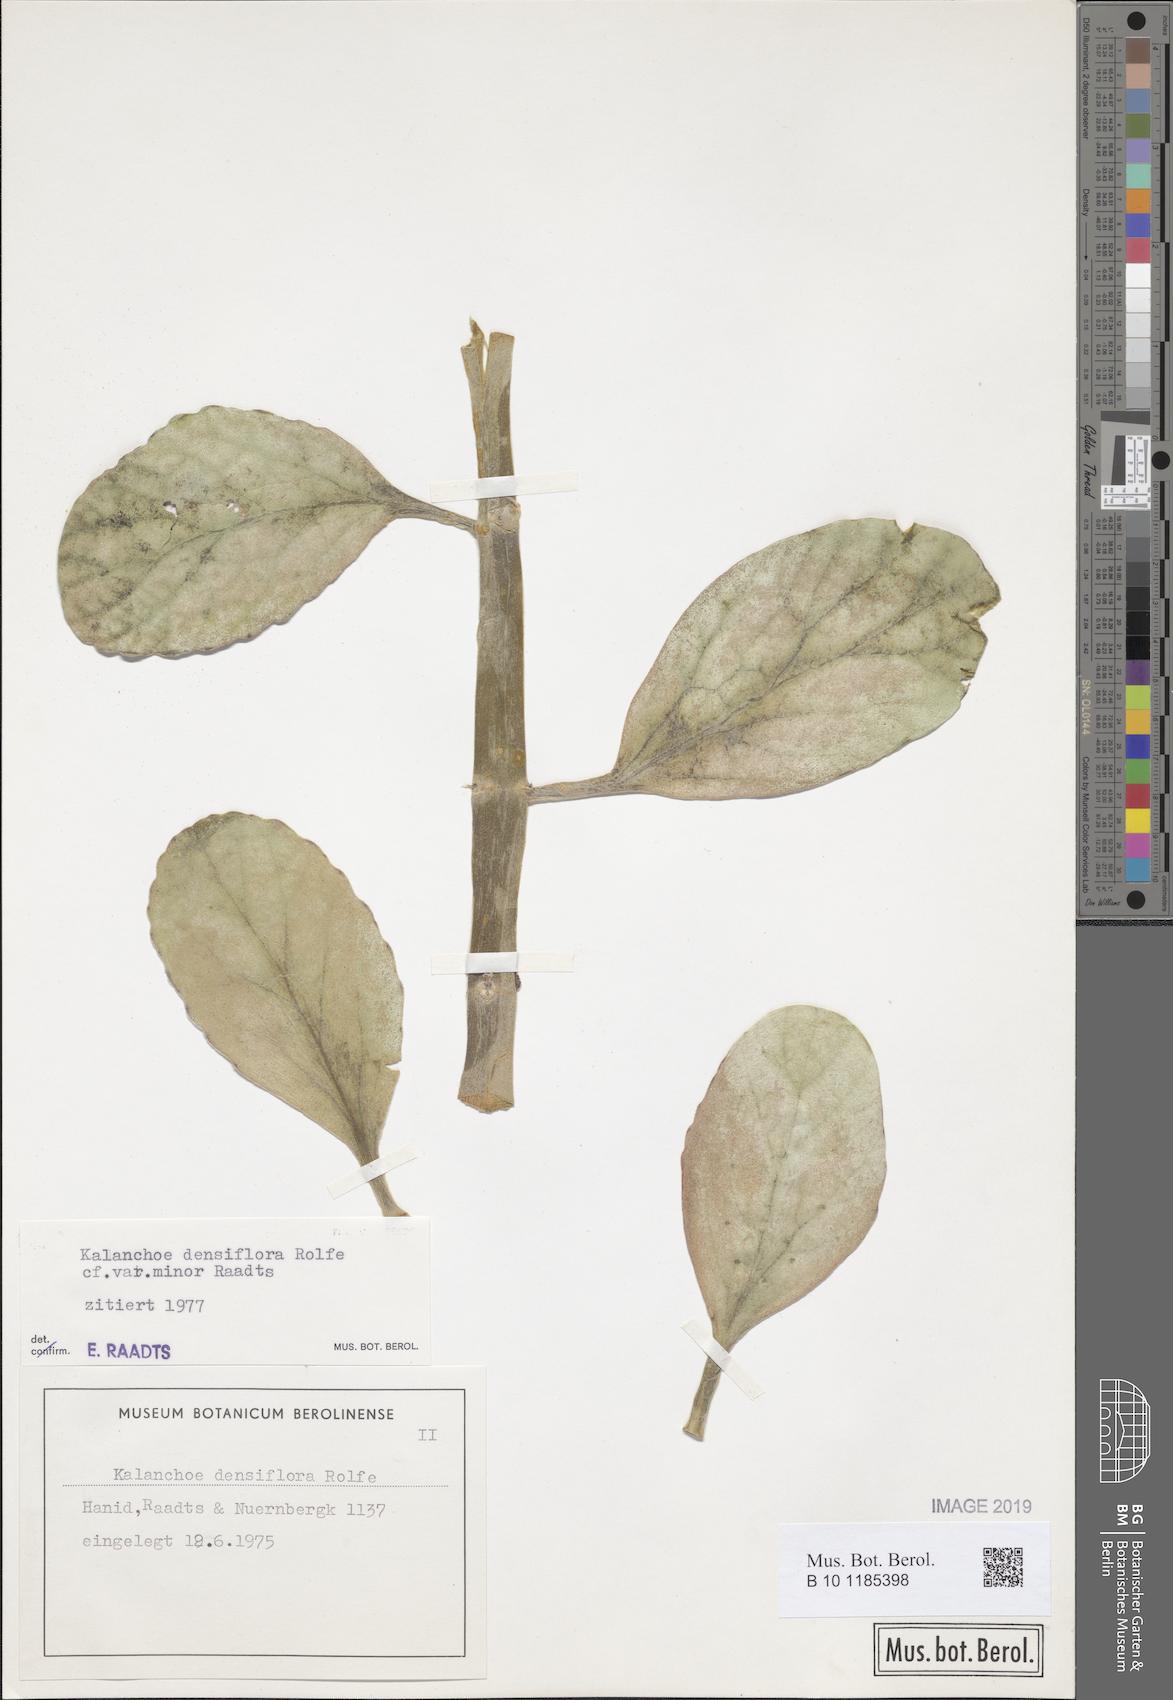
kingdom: Plantae
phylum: Tracheophyta
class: Magnoliopsida
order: Saxifragales
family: Crassulaceae
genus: Kalanchoe
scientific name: Kalanchoe densiflora
